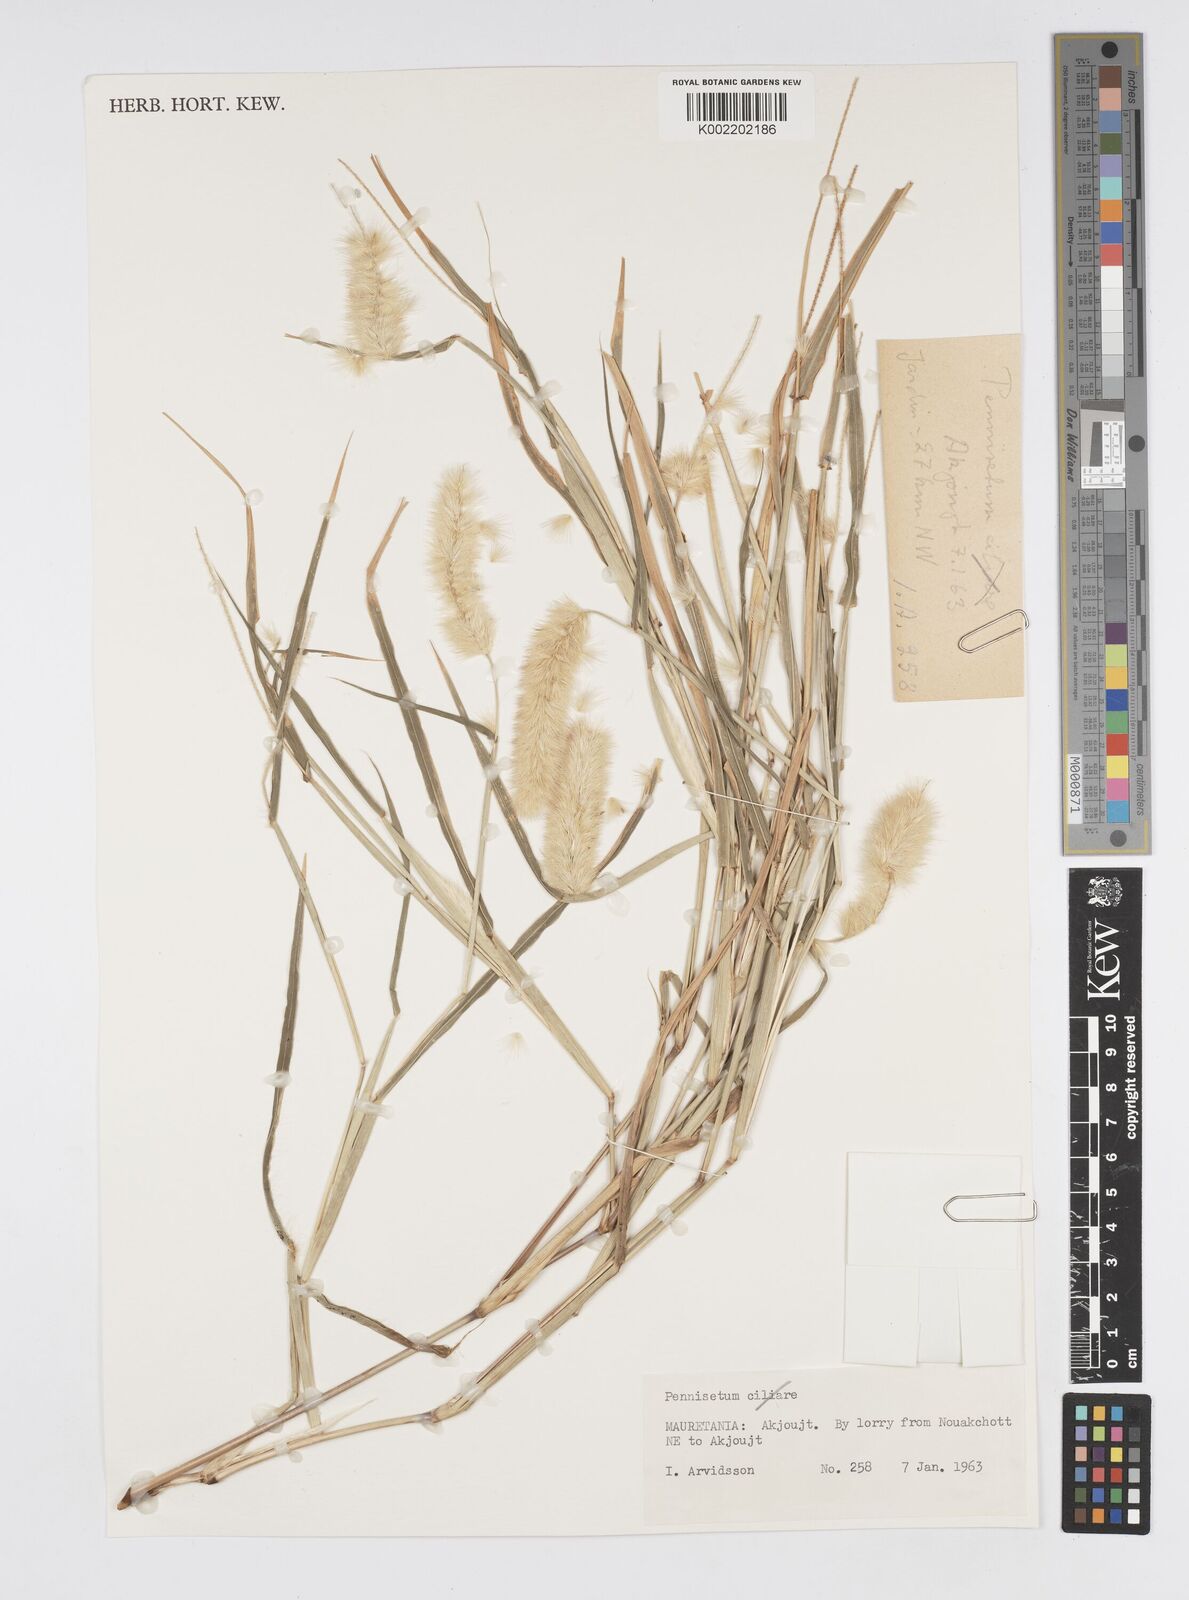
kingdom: Plantae
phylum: Tracheophyta
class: Liliopsida
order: Poales
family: Poaceae
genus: Cenchrus
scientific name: Cenchrus violaceus
